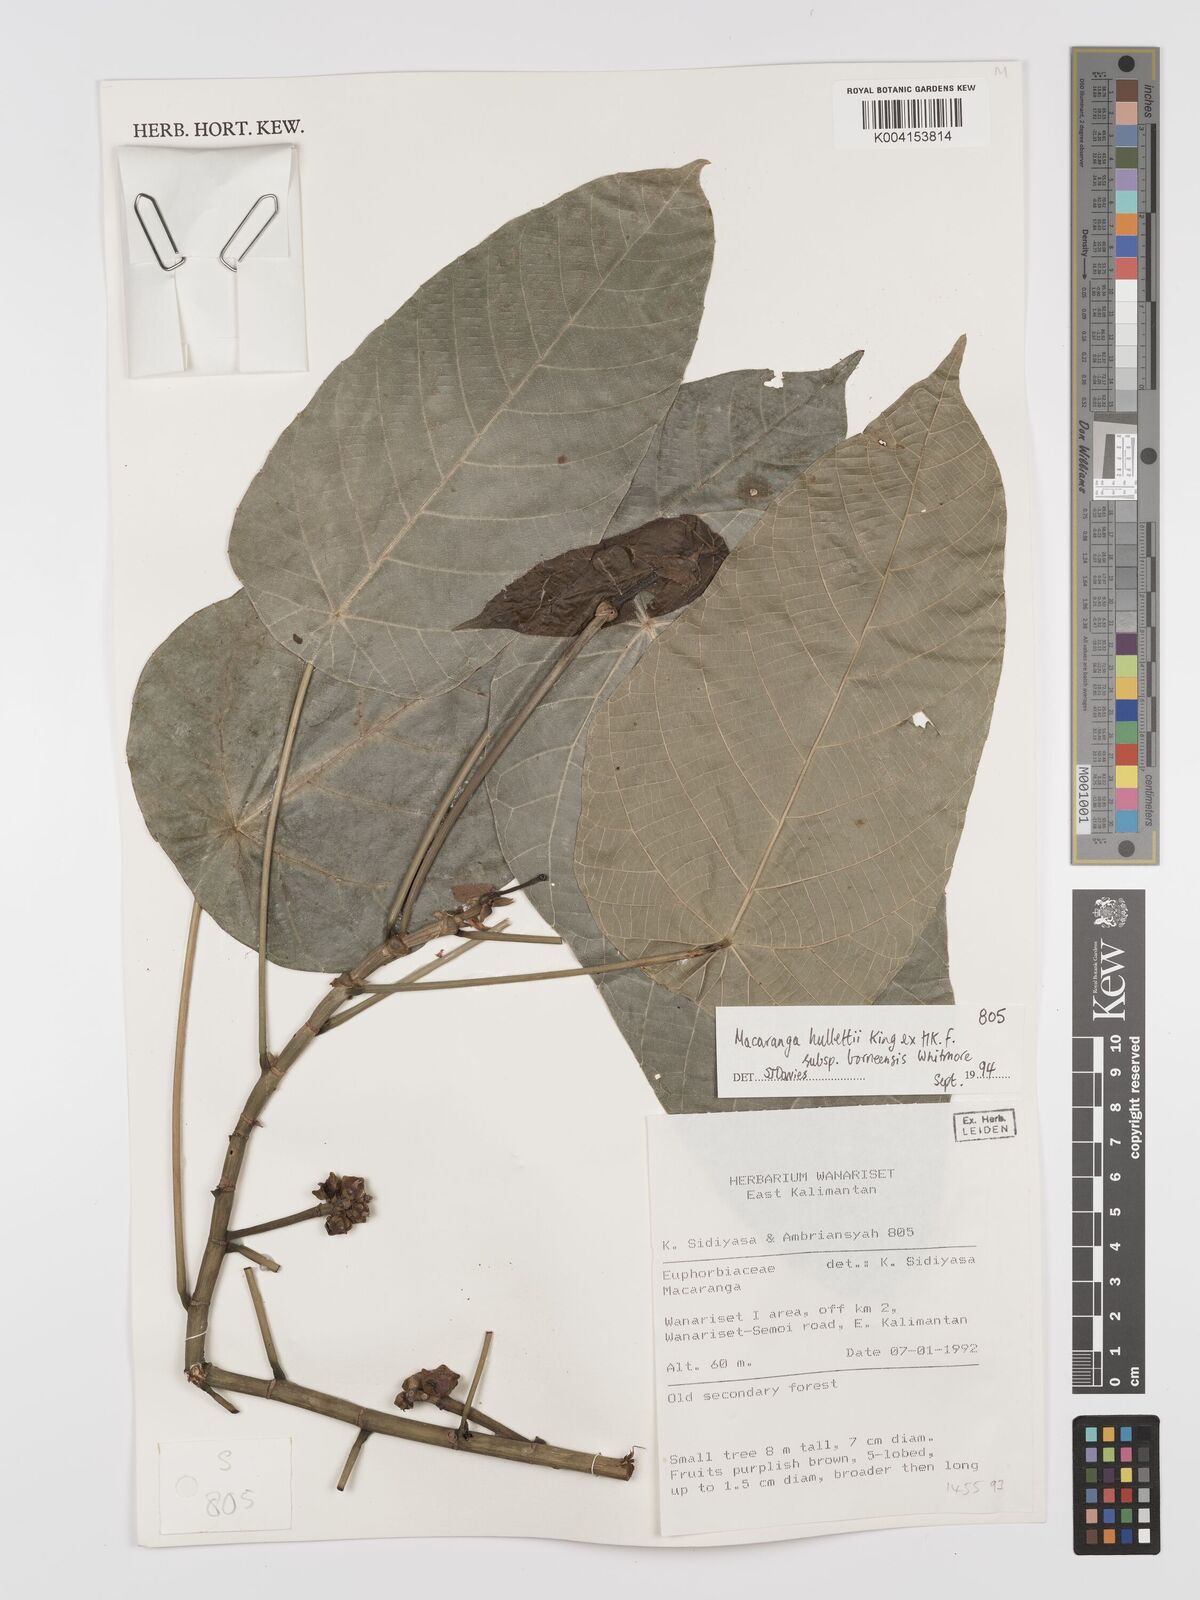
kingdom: Plantae
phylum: Tracheophyta
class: Magnoliopsida
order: Malpighiales
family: Euphorbiaceae
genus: Macaranga
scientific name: Macaranga hullettii
